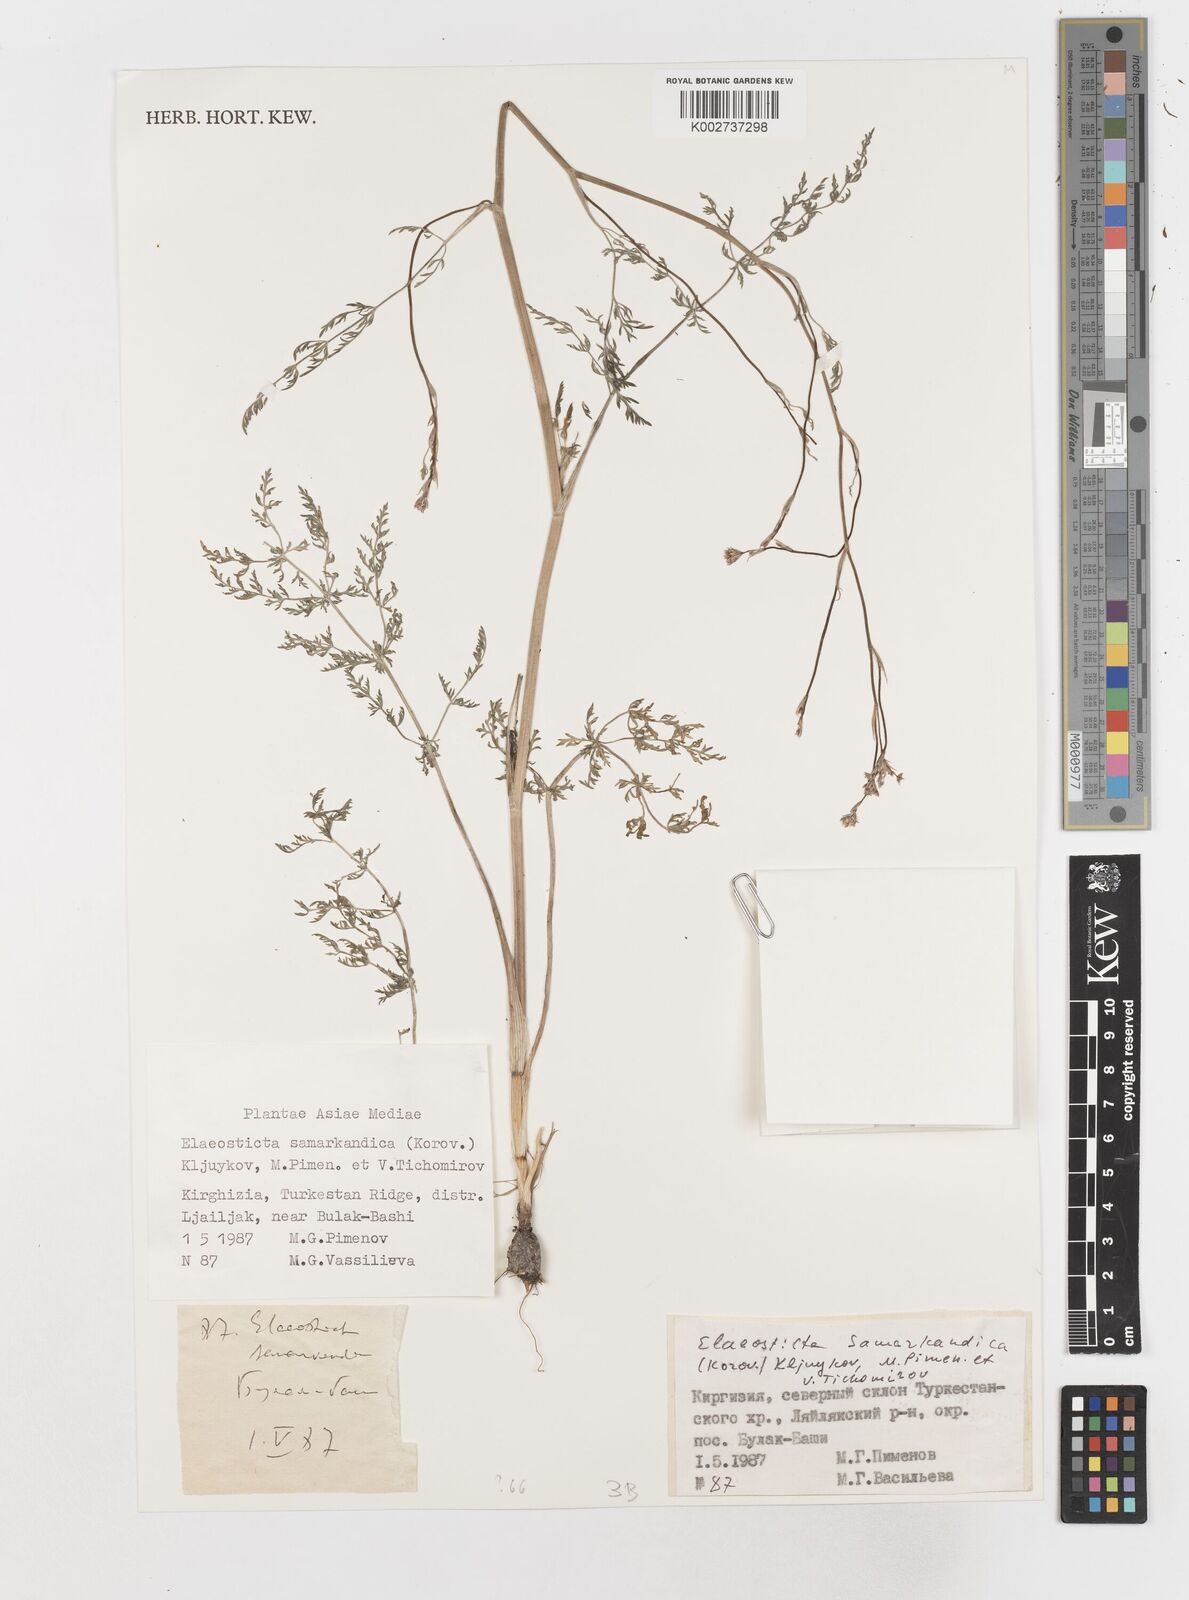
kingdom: Plantae
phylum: Tracheophyta
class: Magnoliopsida
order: Apiales
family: Apiaceae
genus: Conopodium
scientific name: Conopodium
